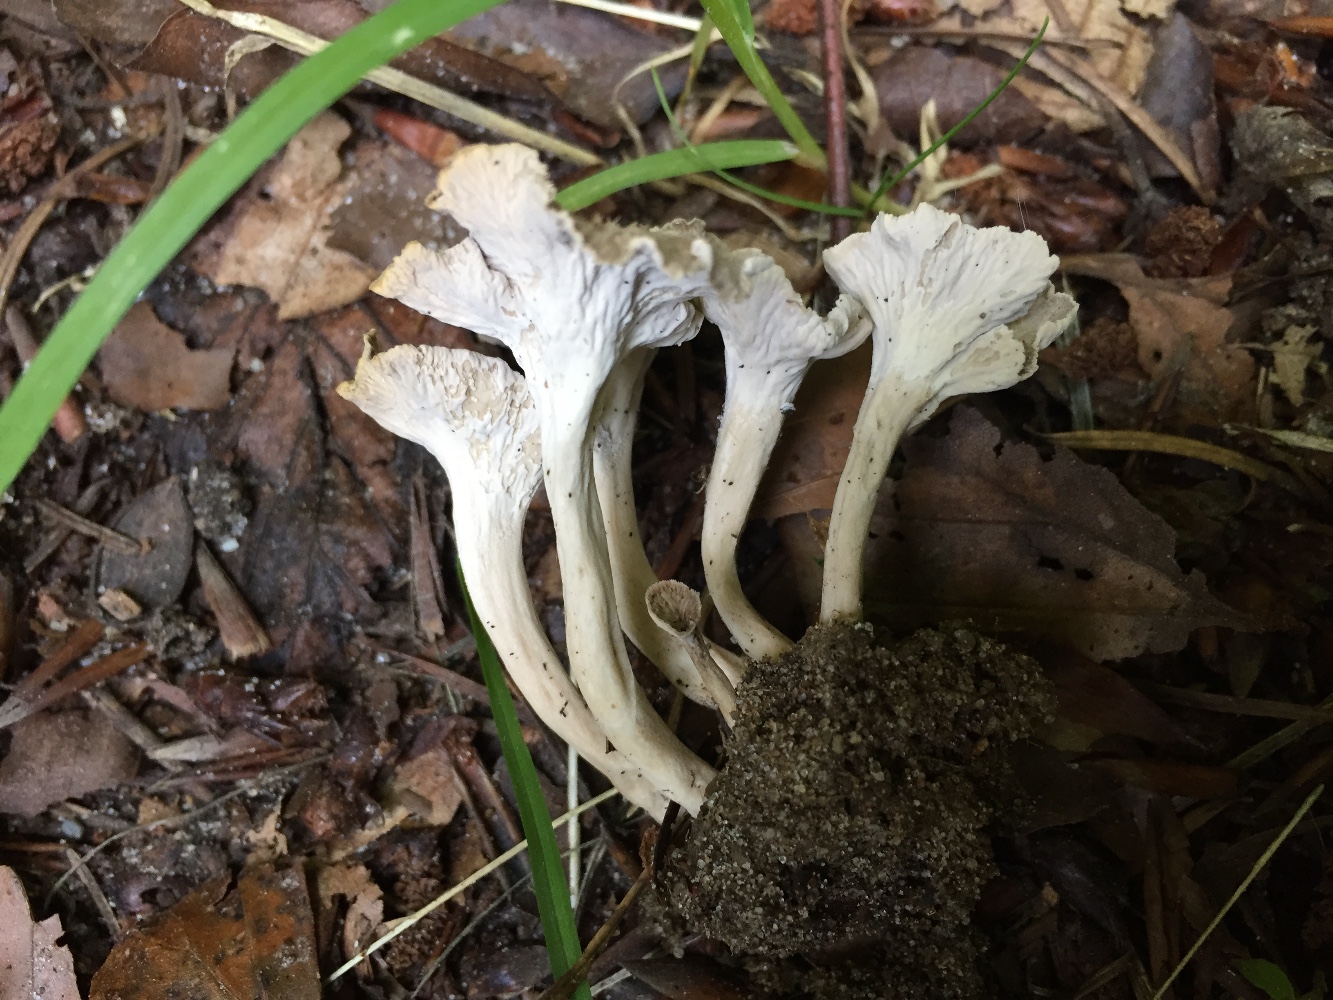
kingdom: Fungi
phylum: Basidiomycota
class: Agaricomycetes
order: Cantharellales
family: Hydnaceae
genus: Craterellus
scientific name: Craterellus undulatus
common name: liden kantarel
